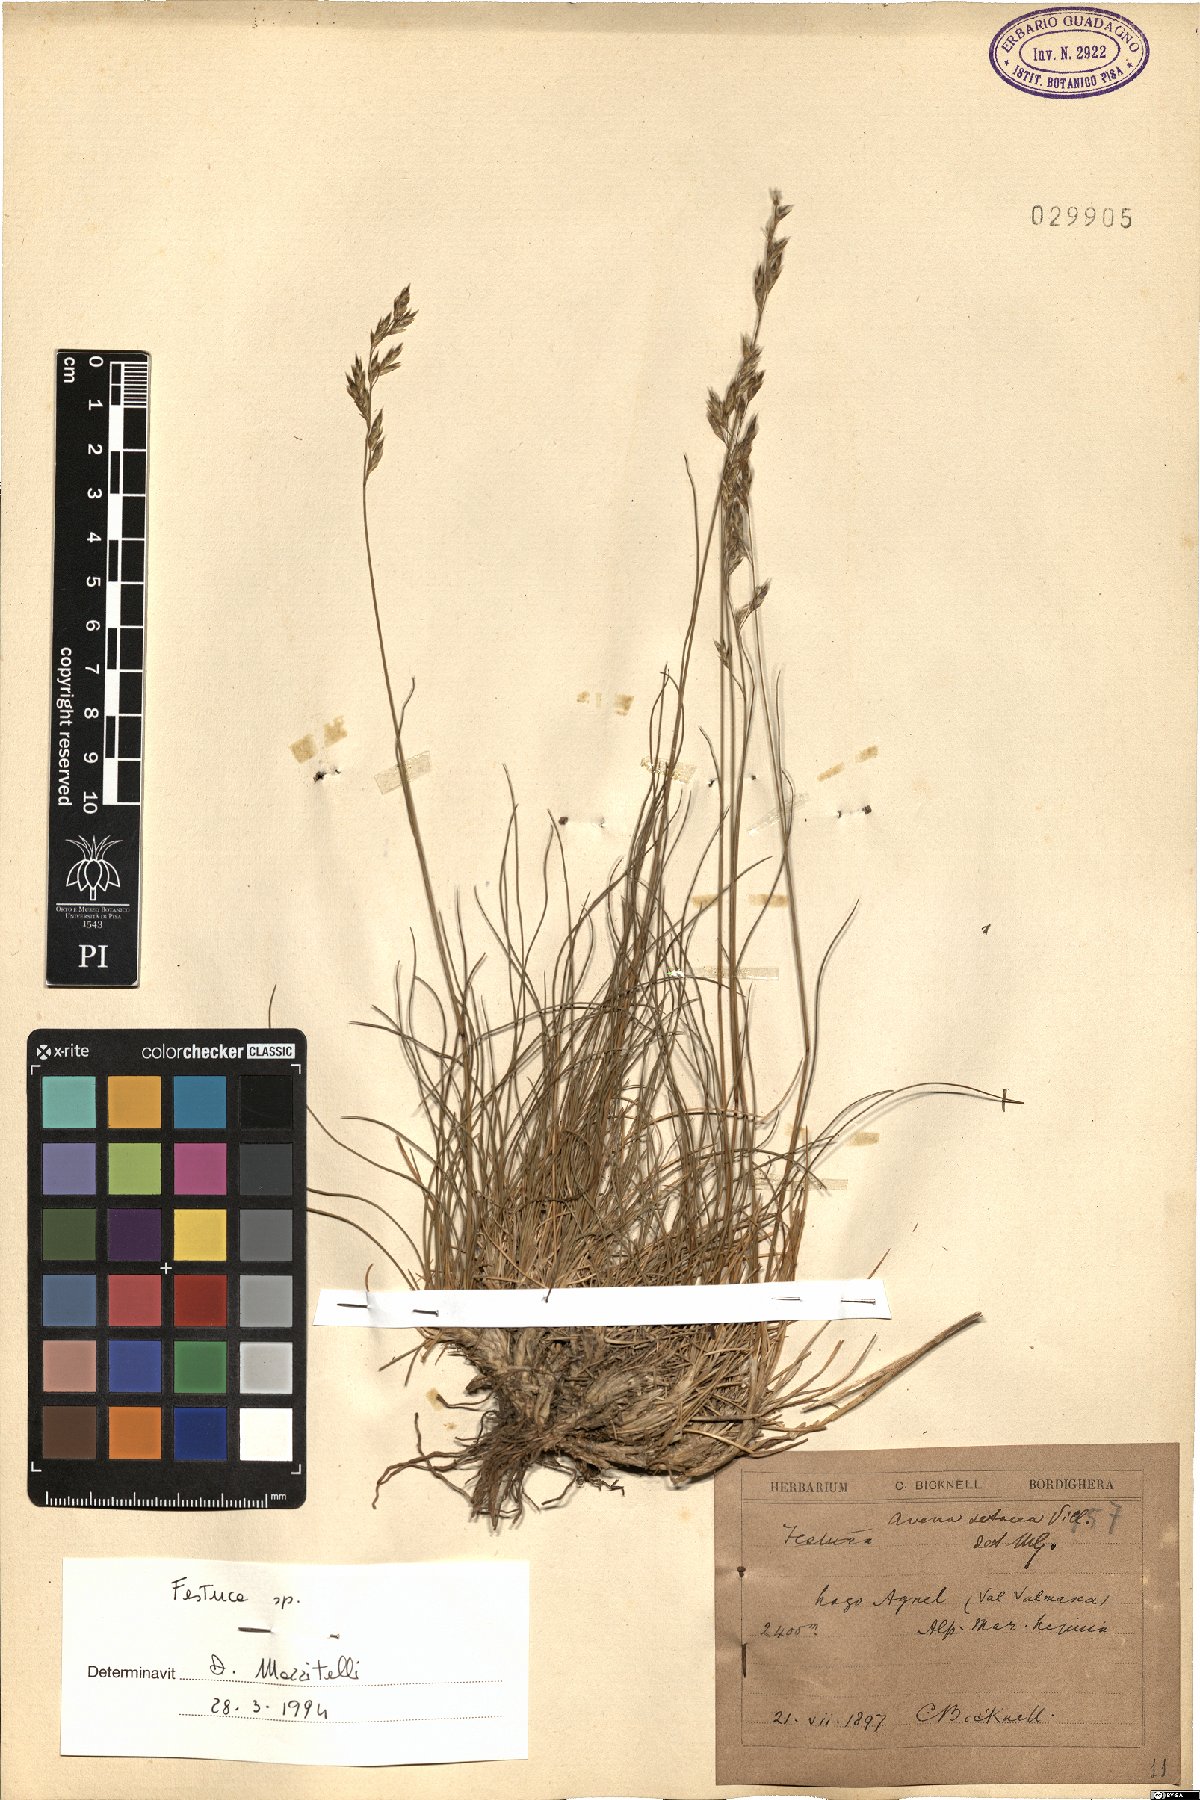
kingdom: Plantae
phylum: Tracheophyta
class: Liliopsida
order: Poales
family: Poaceae
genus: Festuca
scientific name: Festuca
